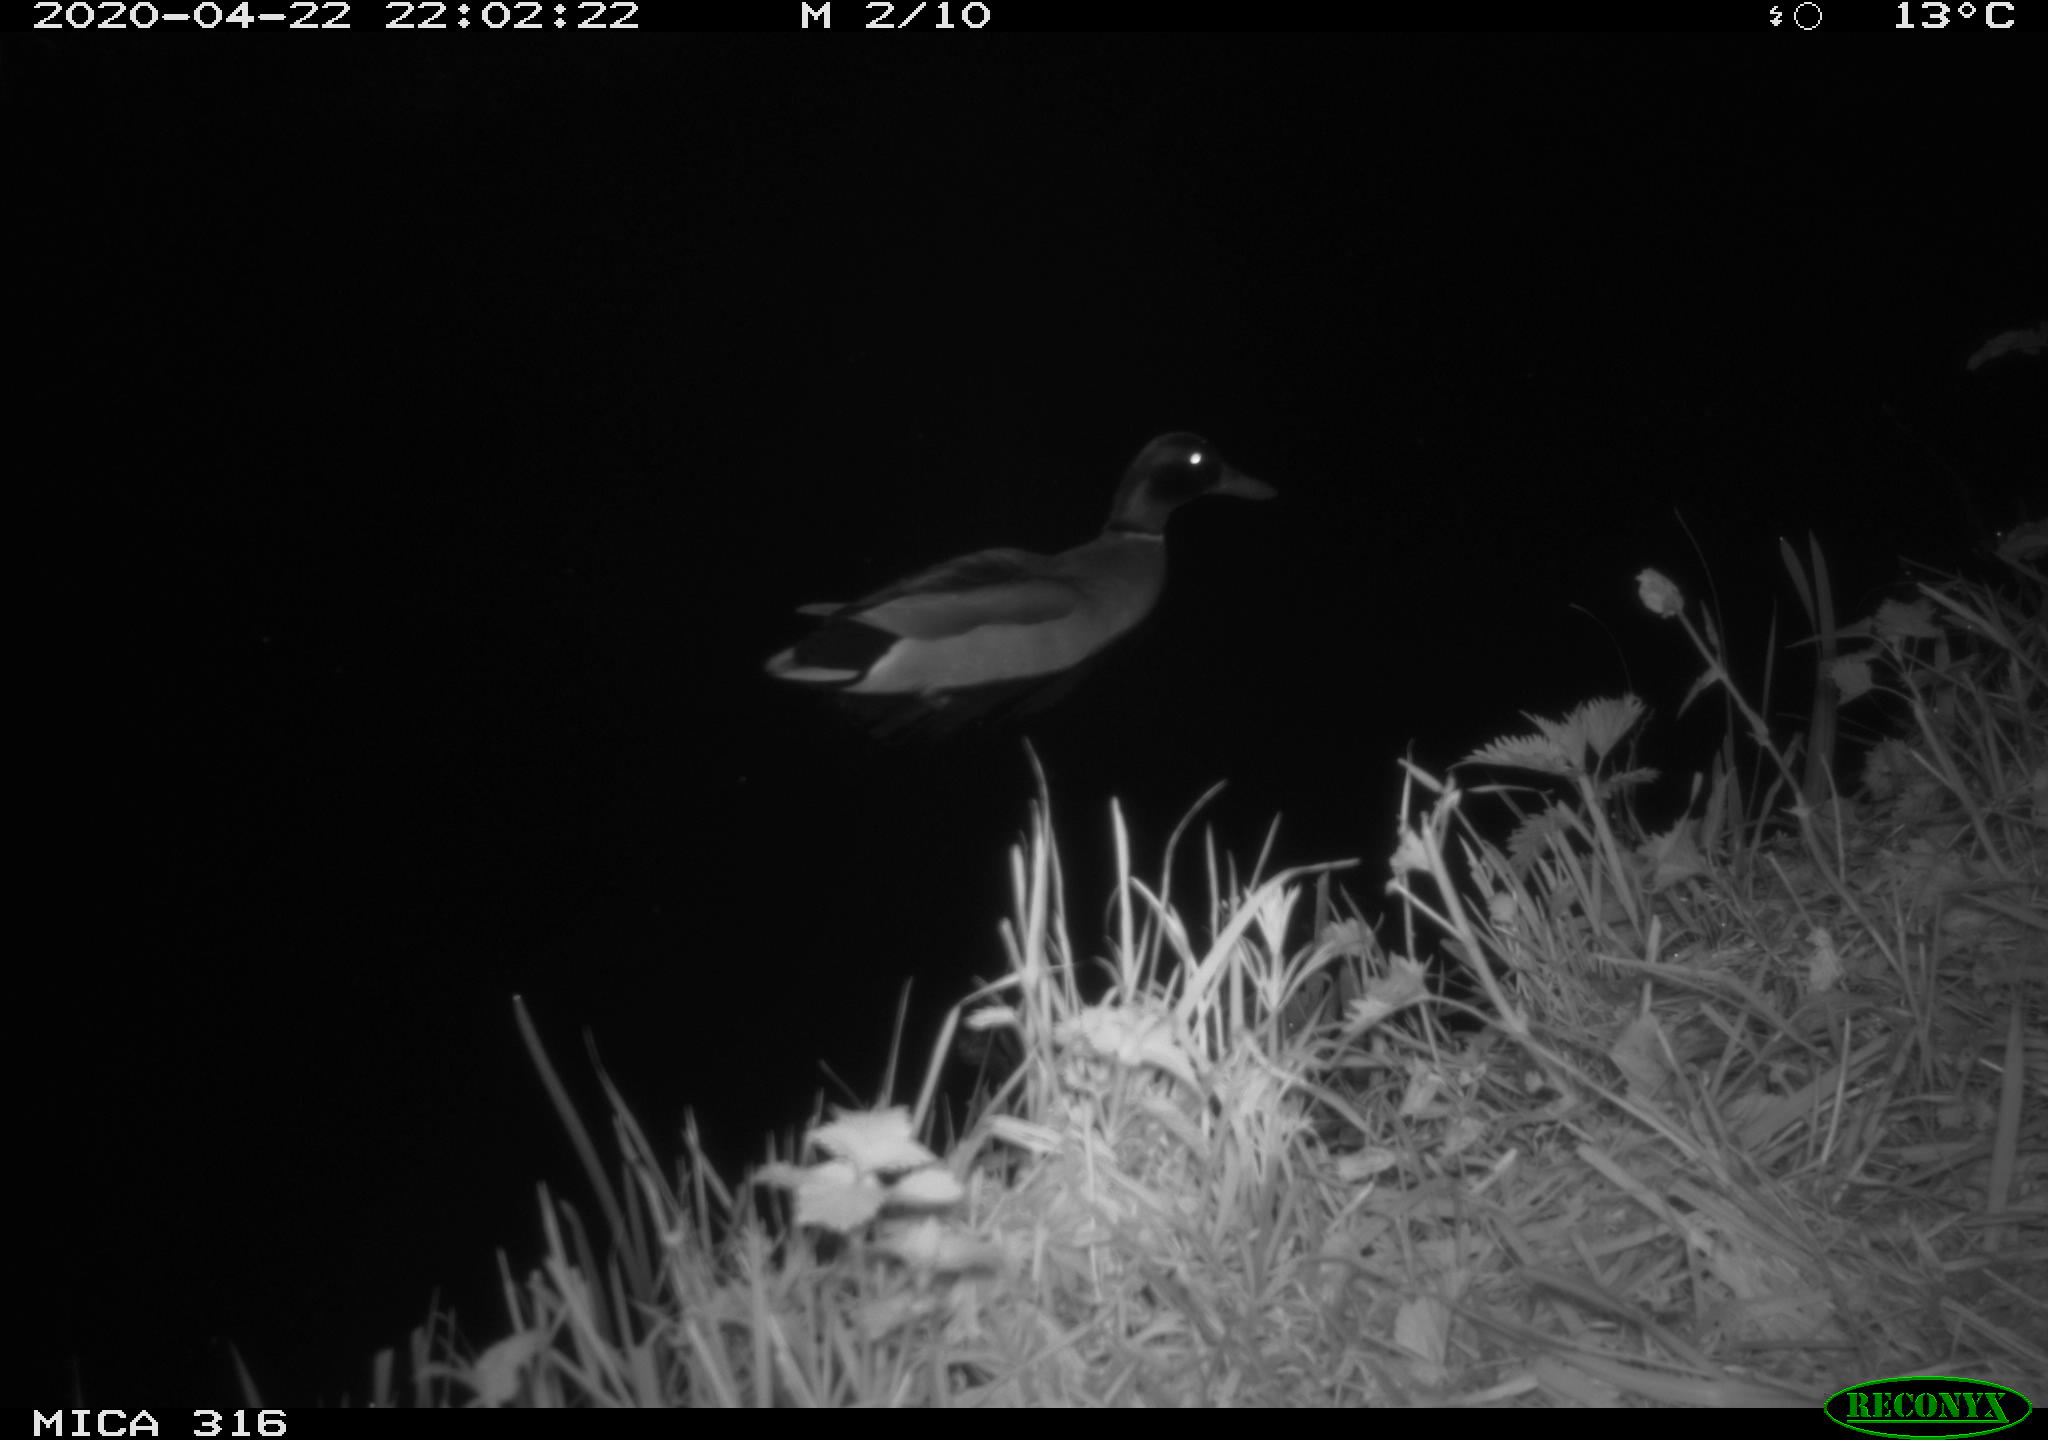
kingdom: Animalia
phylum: Chordata
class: Aves
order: Anseriformes
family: Anatidae
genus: Anas
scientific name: Anas platyrhynchos
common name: Mallard
